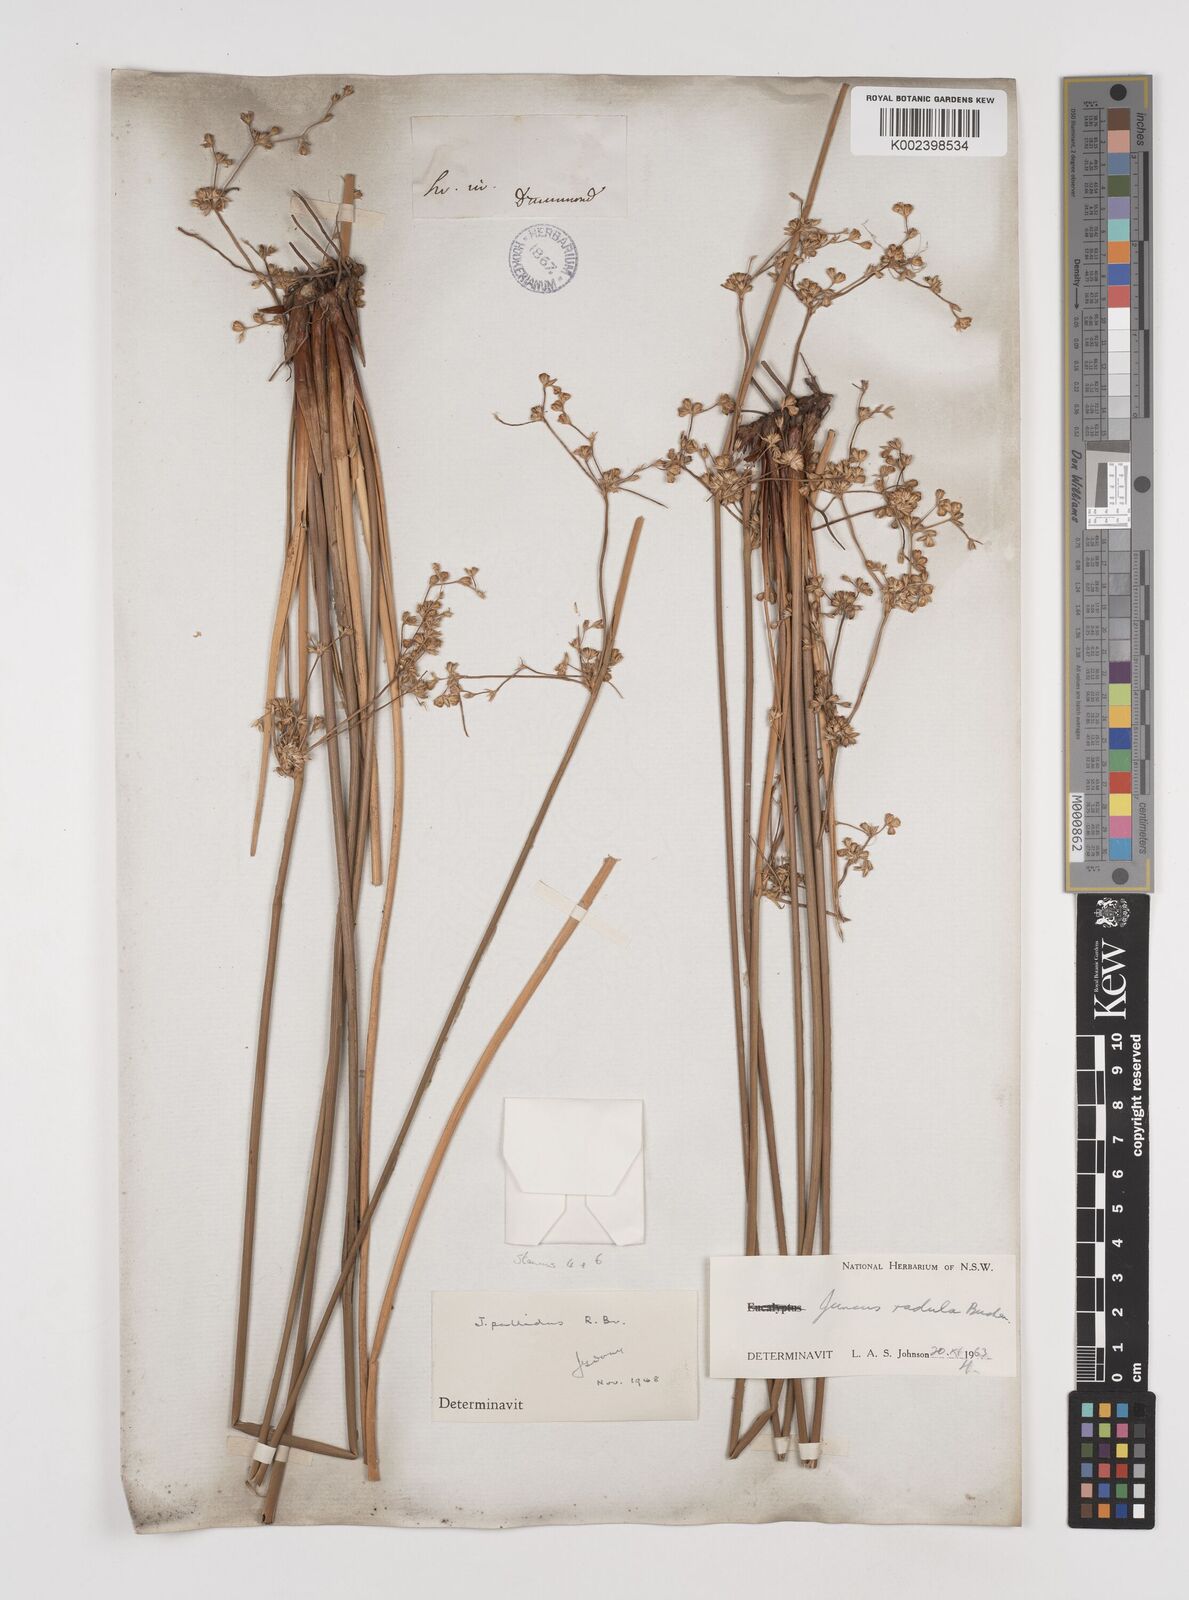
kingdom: Plantae
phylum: Tracheophyta
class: Liliopsida
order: Poales
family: Juncaceae
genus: Juncus
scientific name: Juncus radula
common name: Hoary rush
